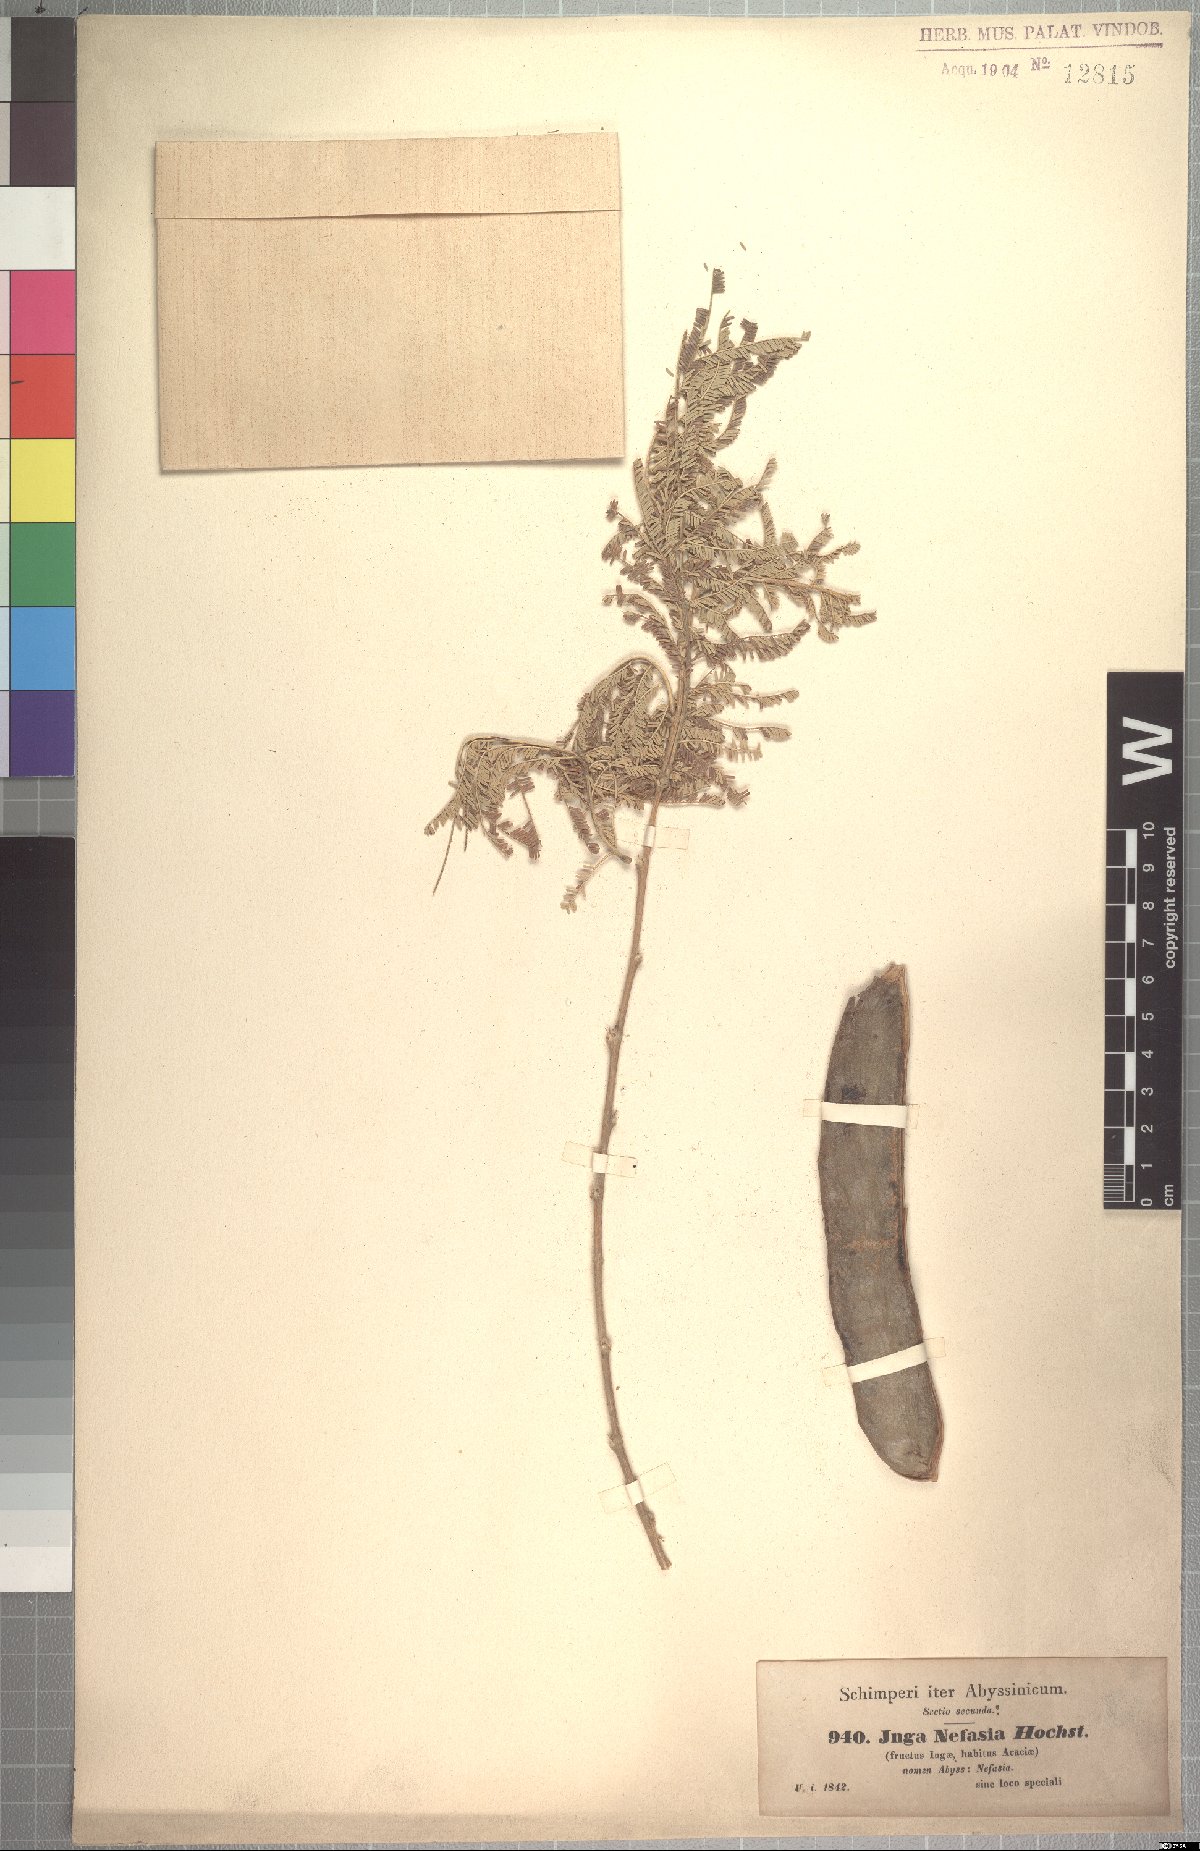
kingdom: Plantae
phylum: Tracheophyta
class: Magnoliopsida
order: Fabales
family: Fabaceae
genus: Vachellia
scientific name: Vachellia sieberiana
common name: Flat-topped thorn
